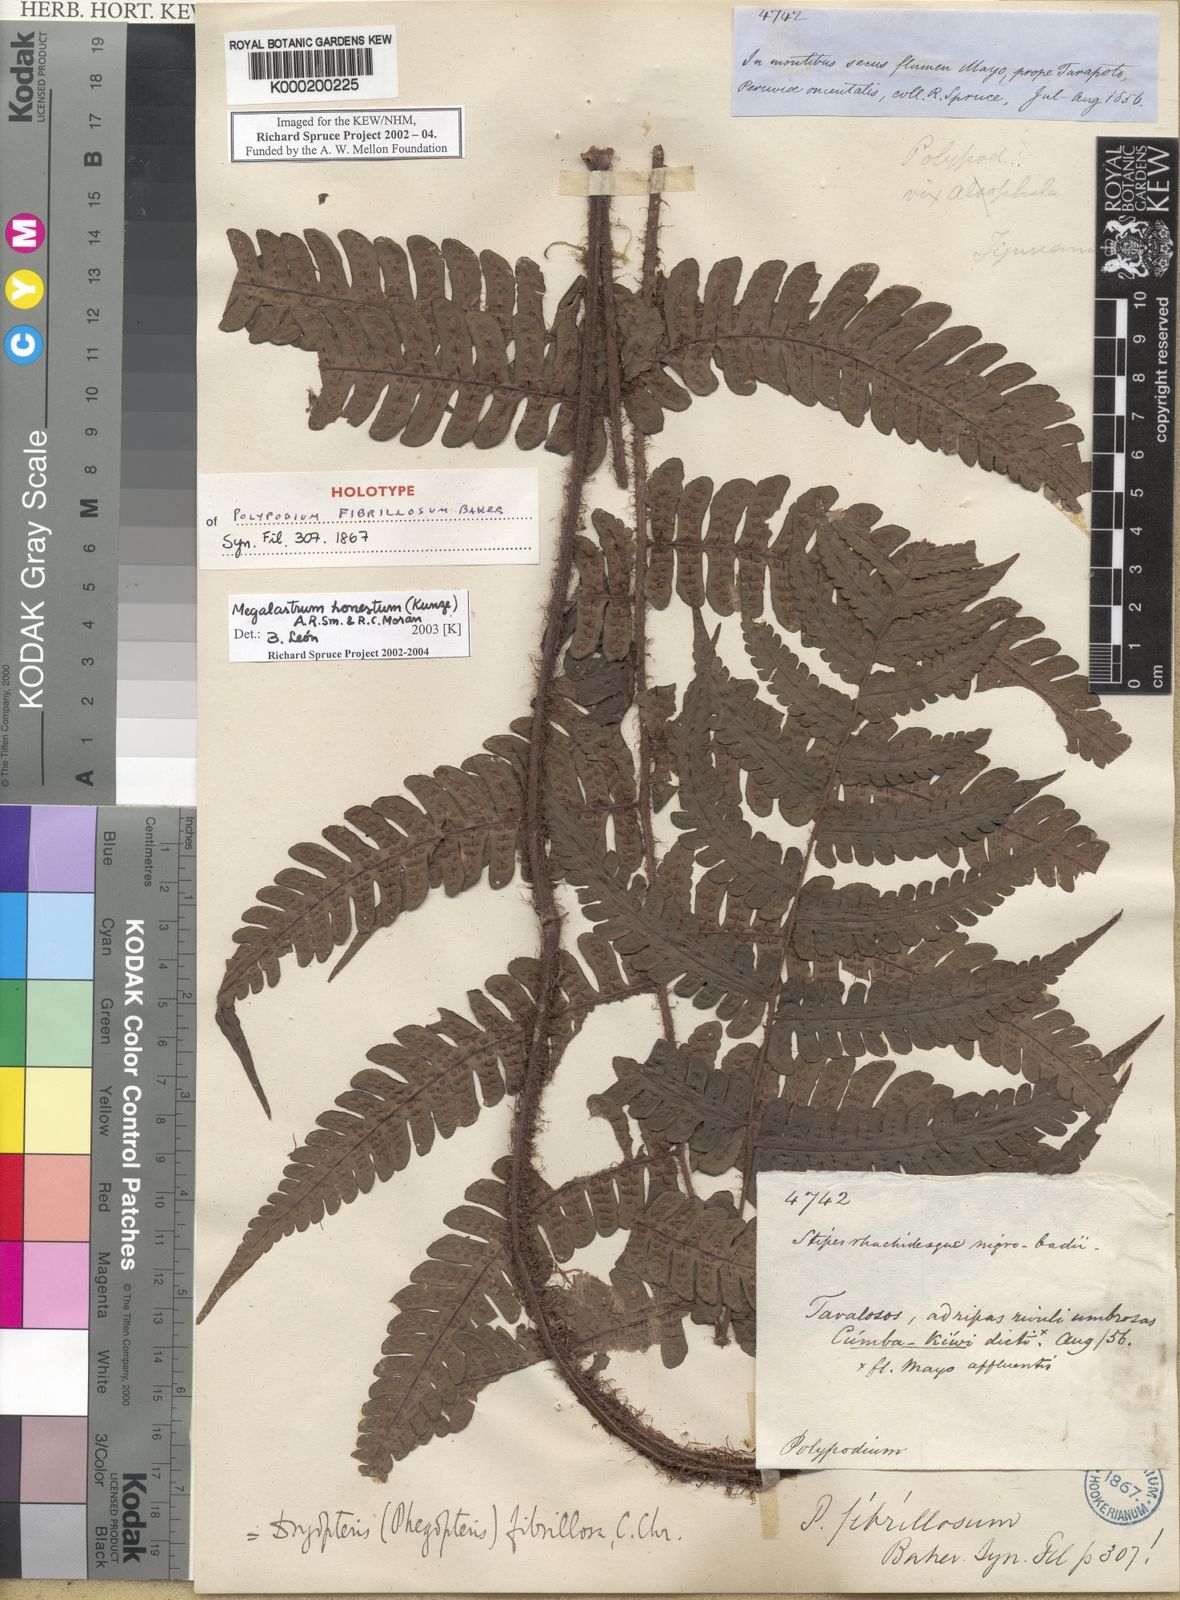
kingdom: Plantae
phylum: Tracheophyta
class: Polypodiopsida
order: Polypodiales
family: Dryopteridaceae
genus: Megalastrum
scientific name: Megalastrum honestum
